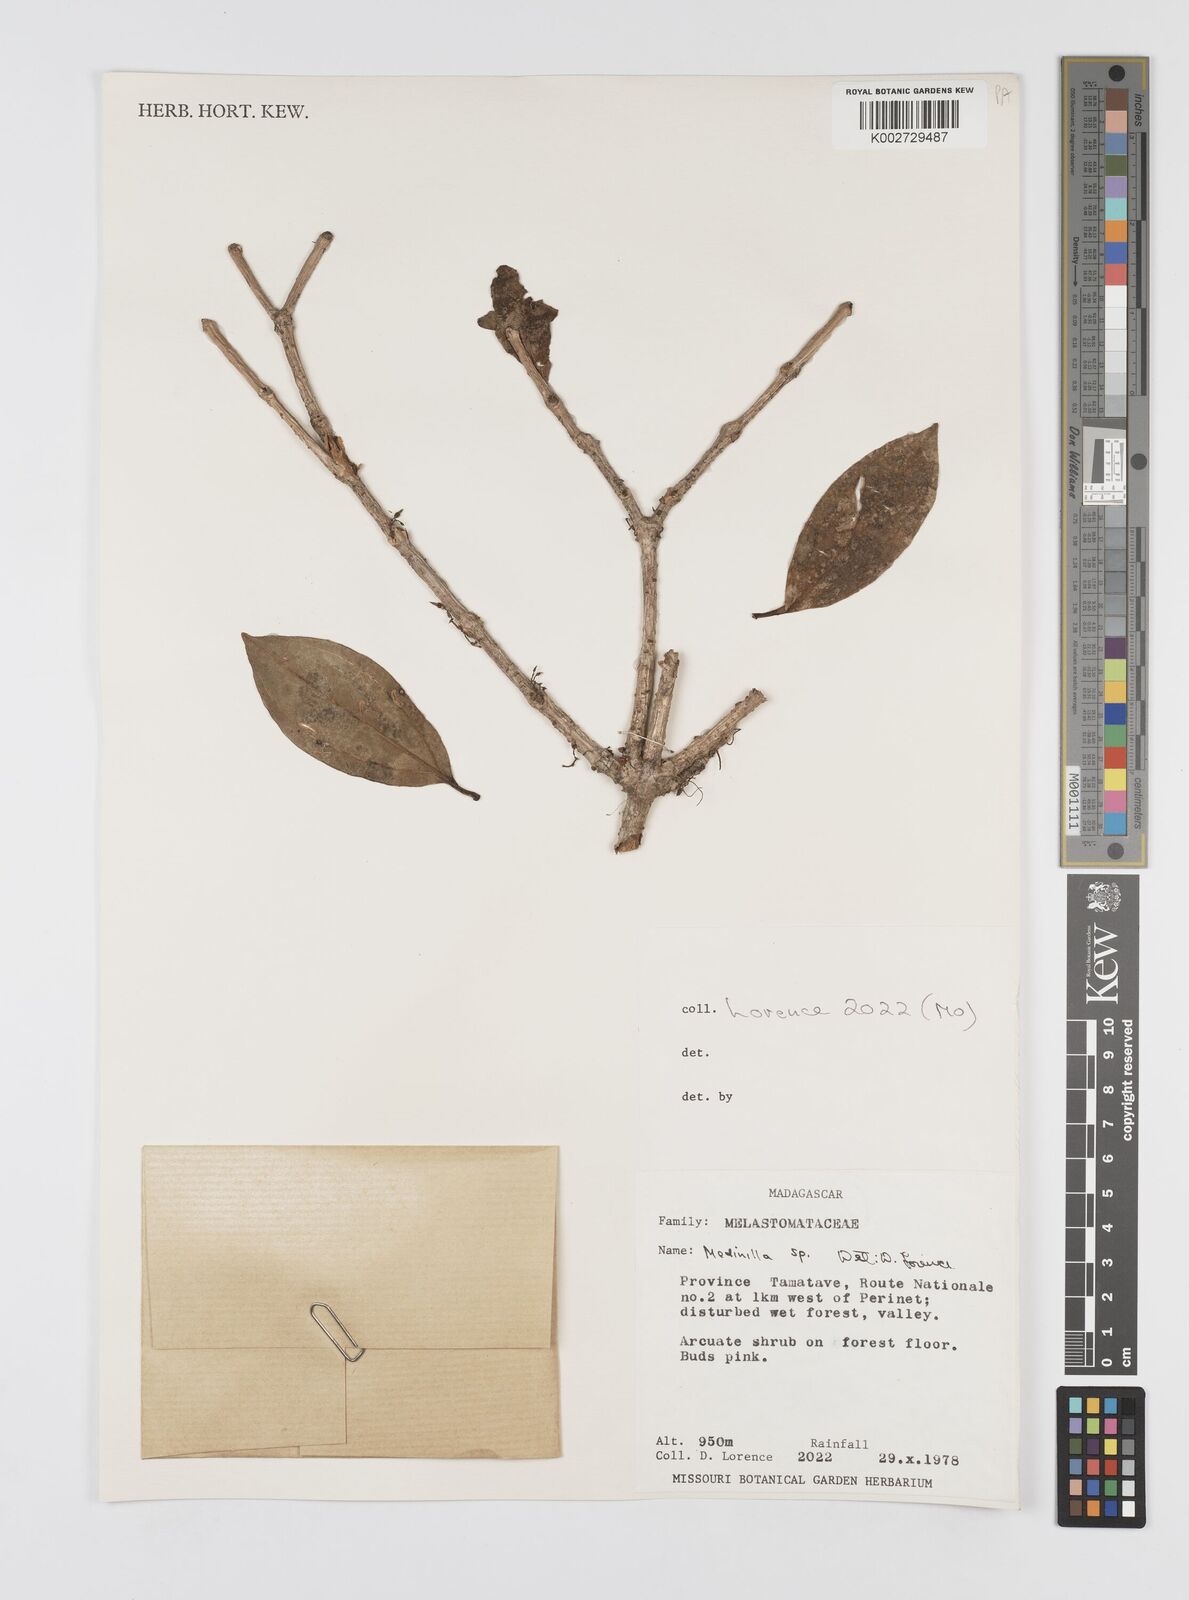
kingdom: Plantae
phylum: Tracheophyta
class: Magnoliopsida
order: Myrtales
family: Melastomataceae
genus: Medinilla
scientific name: Medinilla
